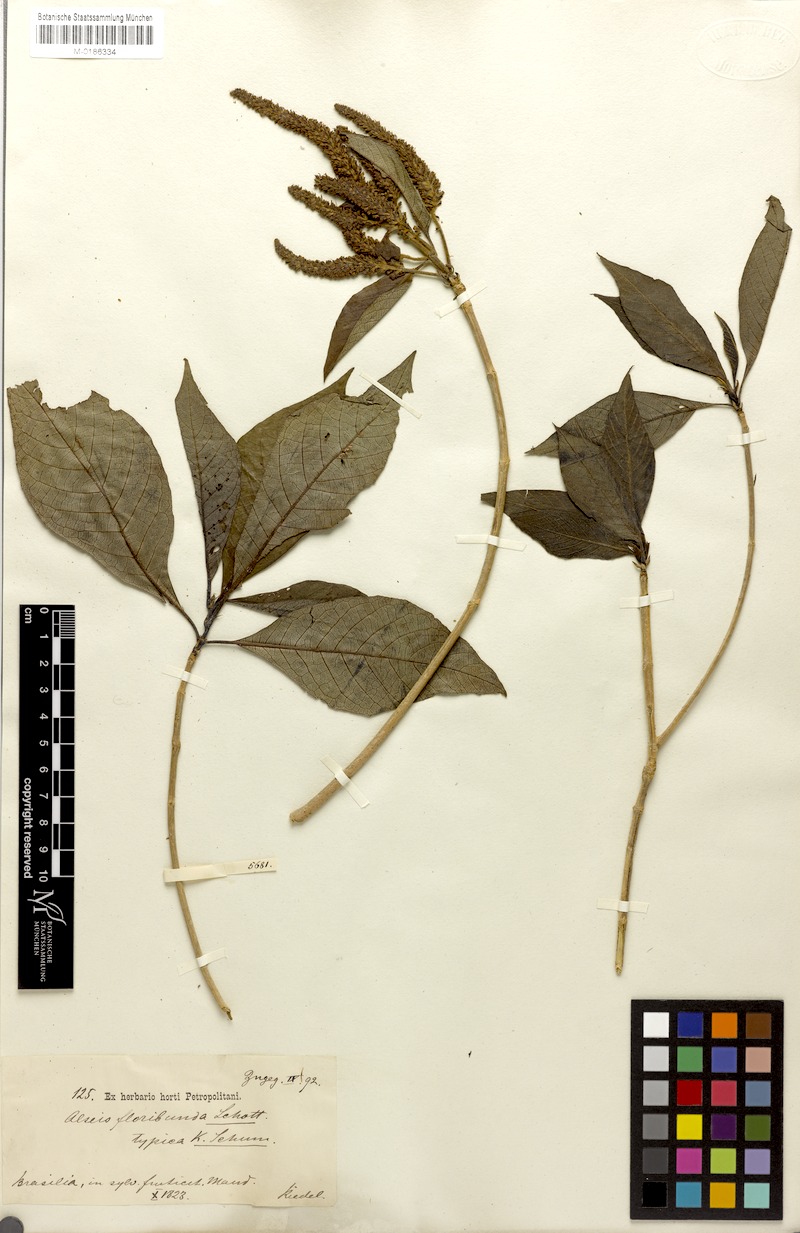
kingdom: Plantae
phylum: Tracheophyta
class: Magnoliopsida
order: Gentianales
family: Rubiaceae
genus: Alseis
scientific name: Alseis floribunda
